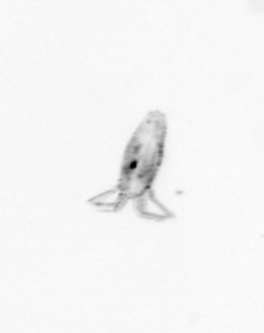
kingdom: Animalia
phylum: Arthropoda
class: Copepoda
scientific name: Copepoda
